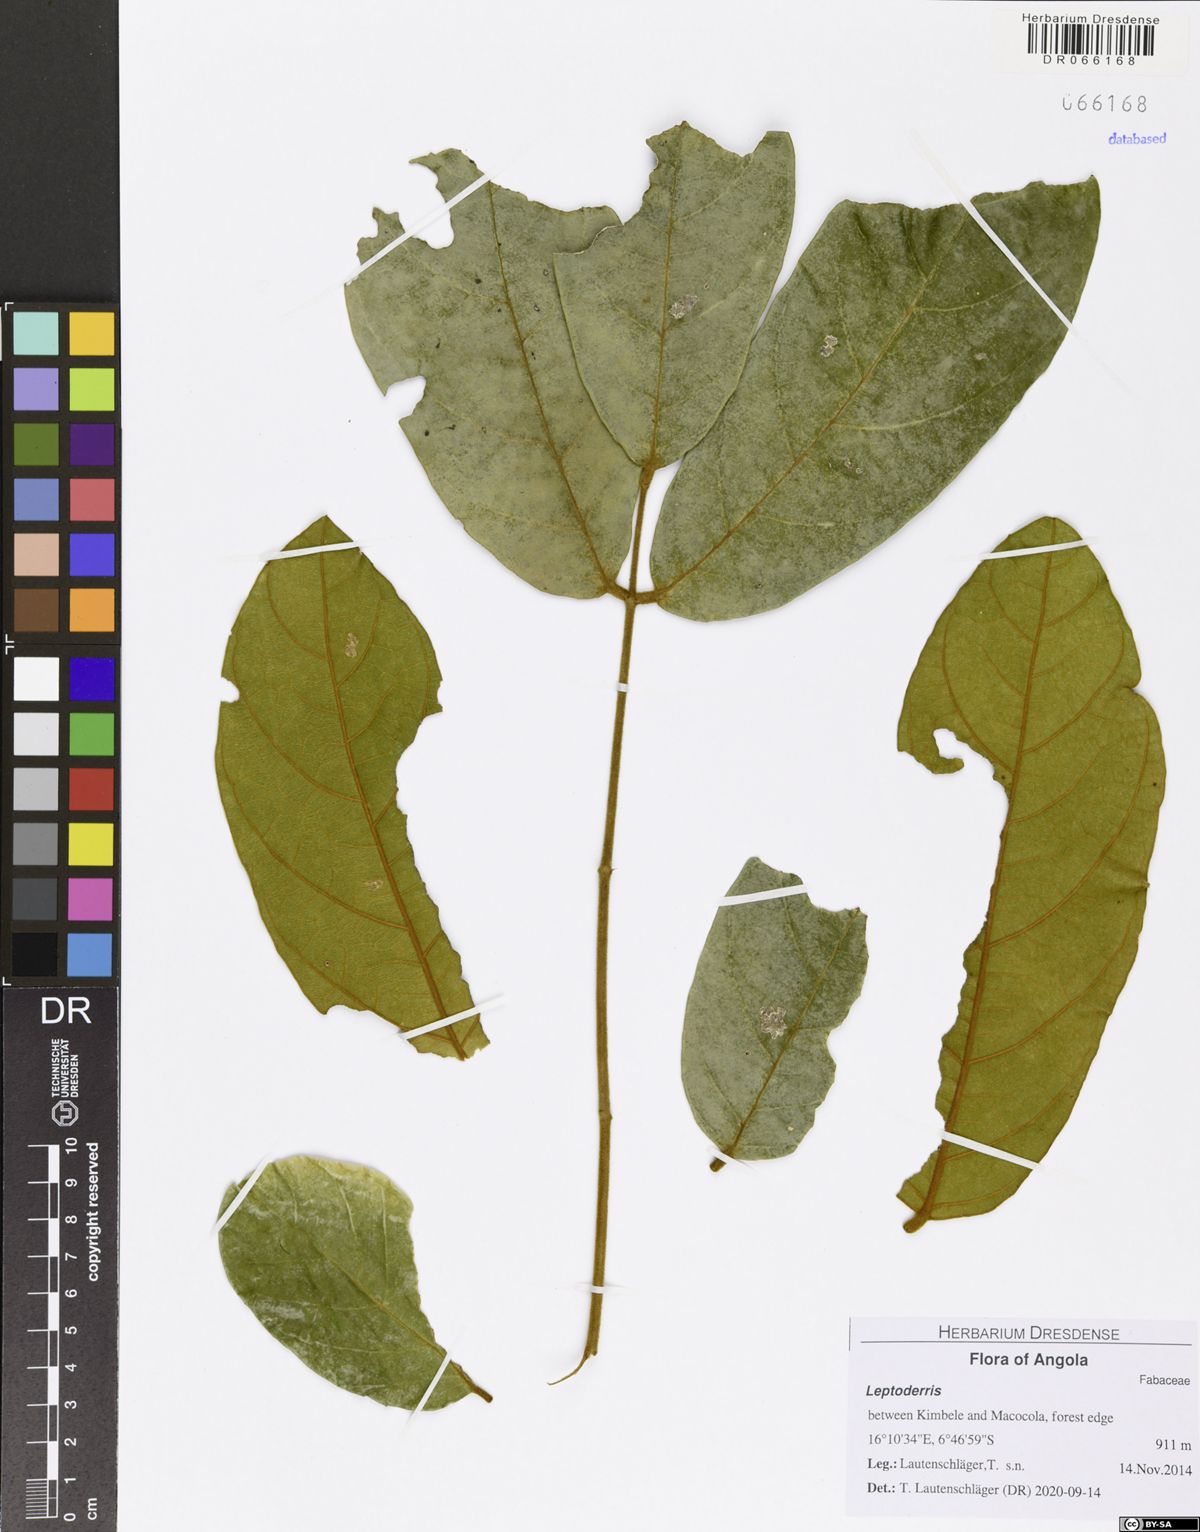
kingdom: Plantae
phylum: Tracheophyta
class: Magnoliopsida
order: Fabales
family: Fabaceae
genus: Leptoderris
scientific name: Leptoderris nobilis
